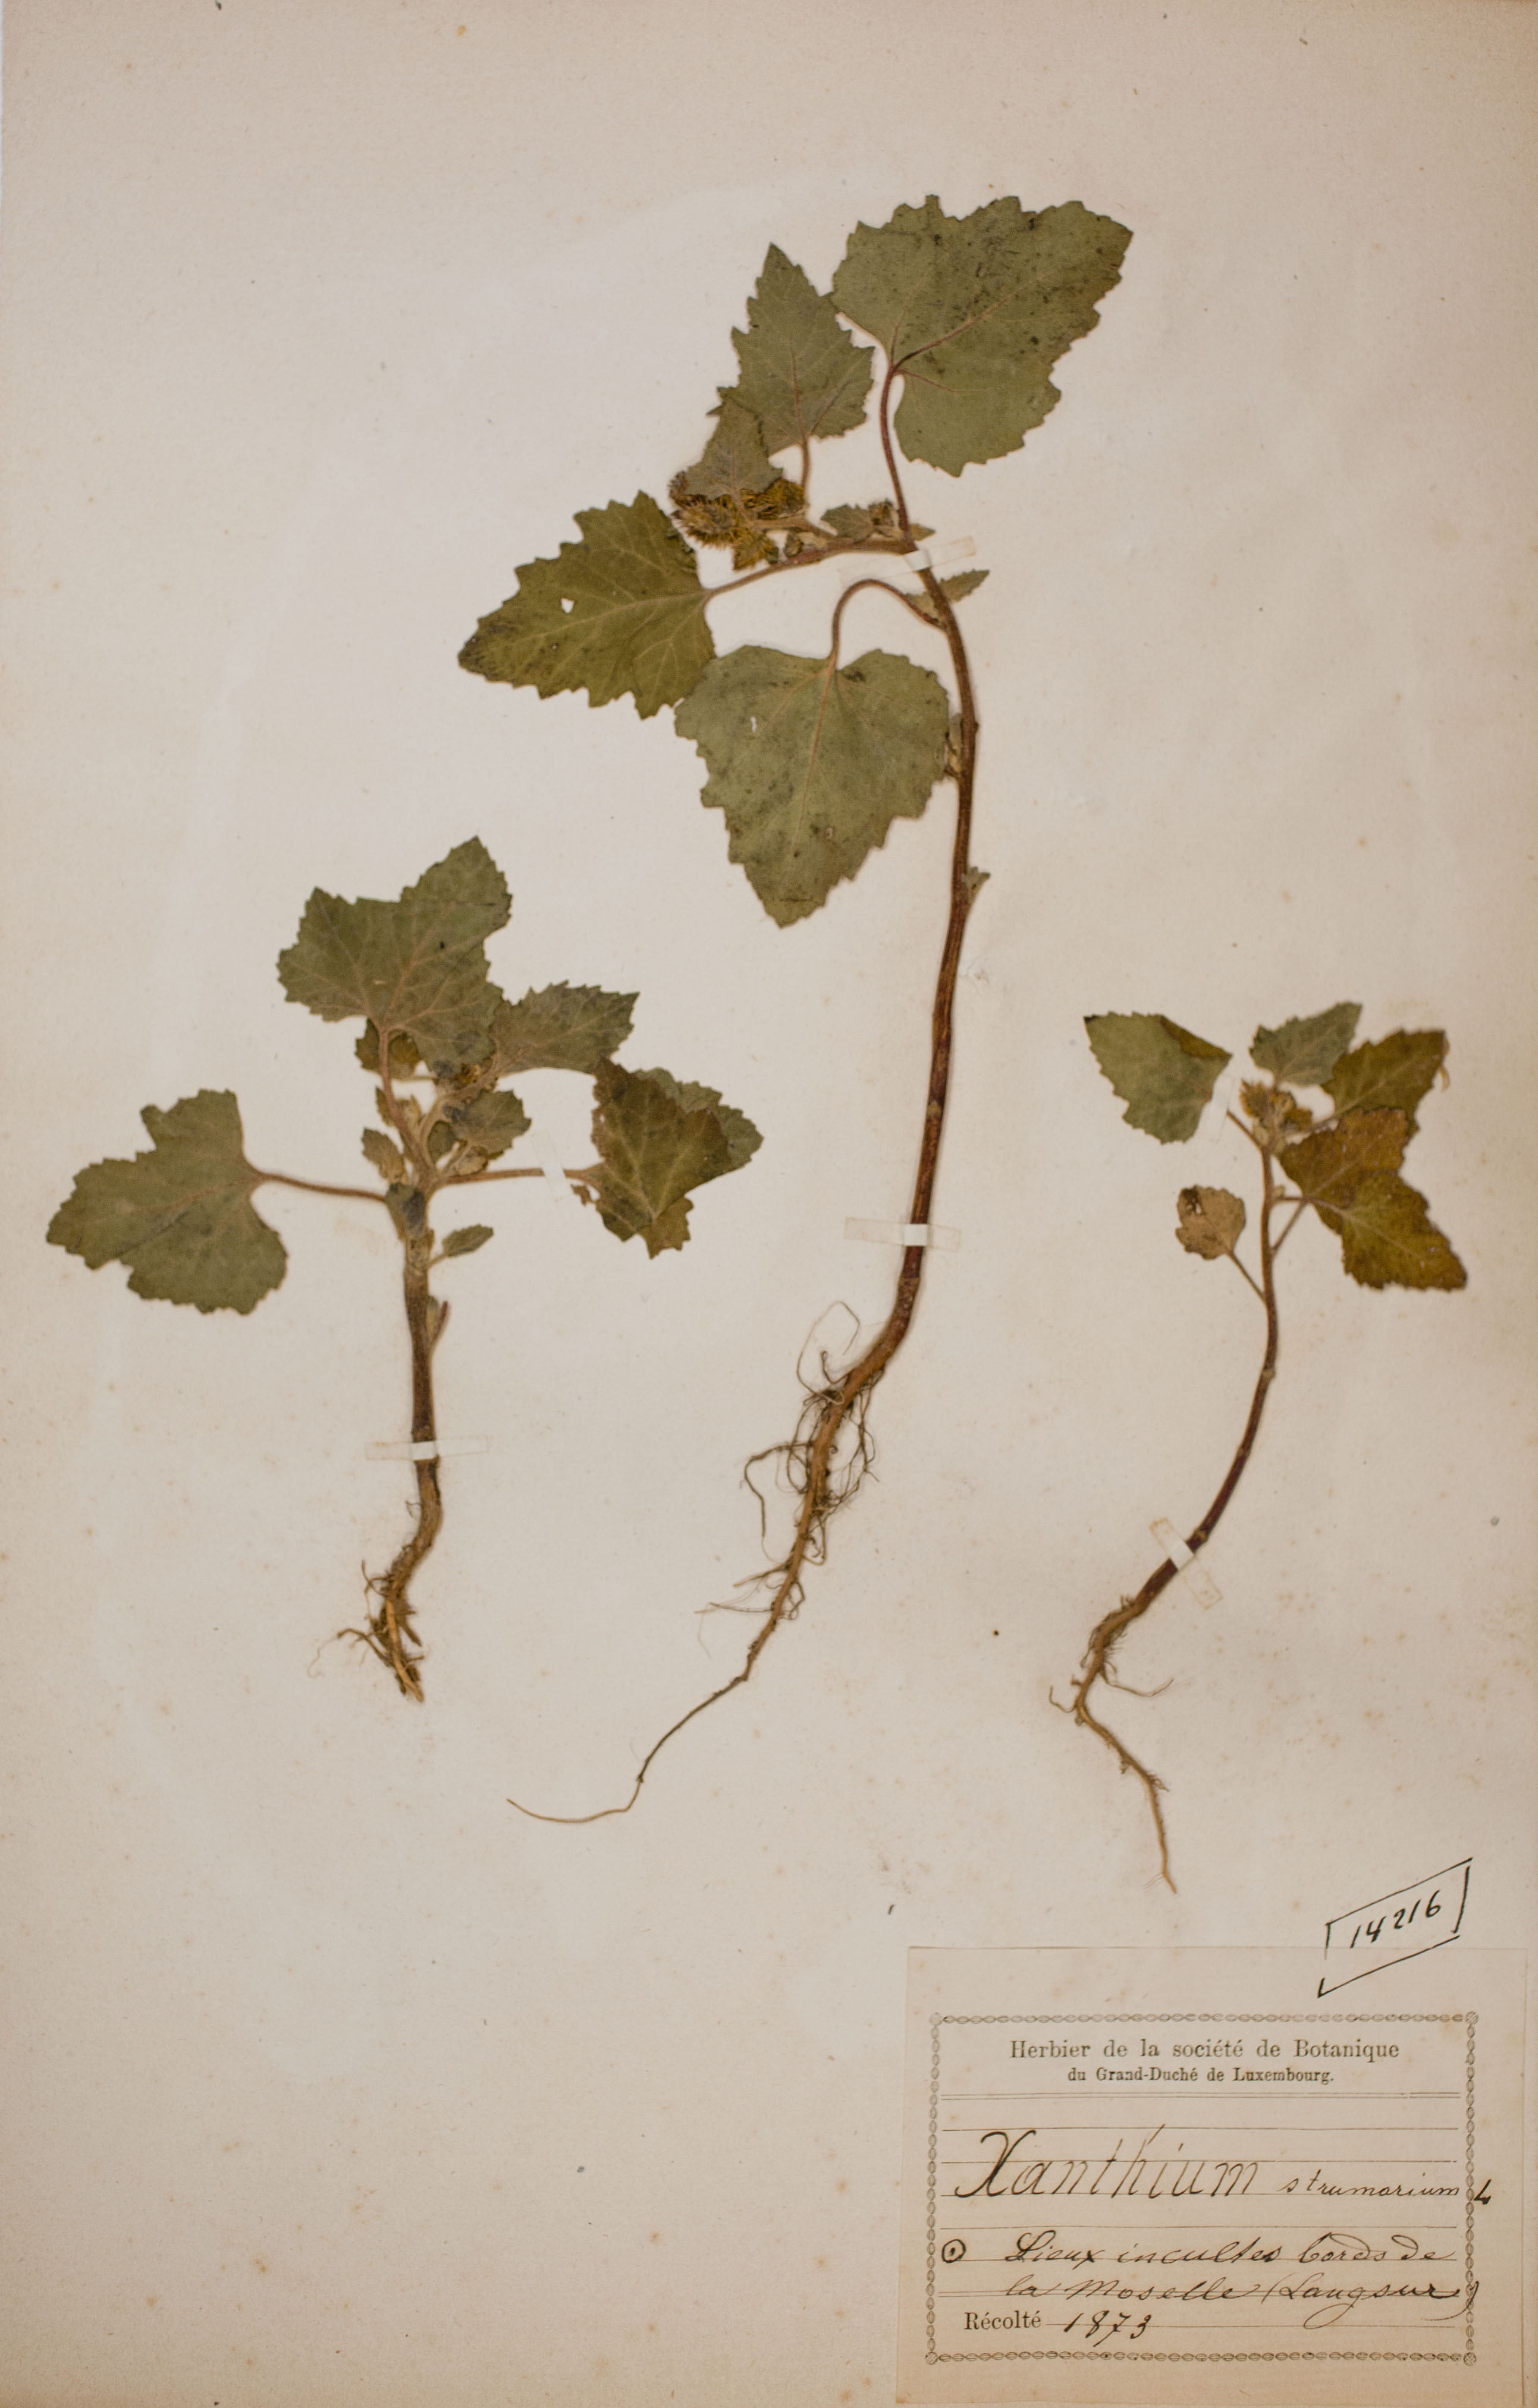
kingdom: Plantae
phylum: Tracheophyta
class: Magnoliopsida
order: Asterales
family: Asteraceae
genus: Xanthium
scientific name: Xanthium strumarium
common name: Rough cocklebur
